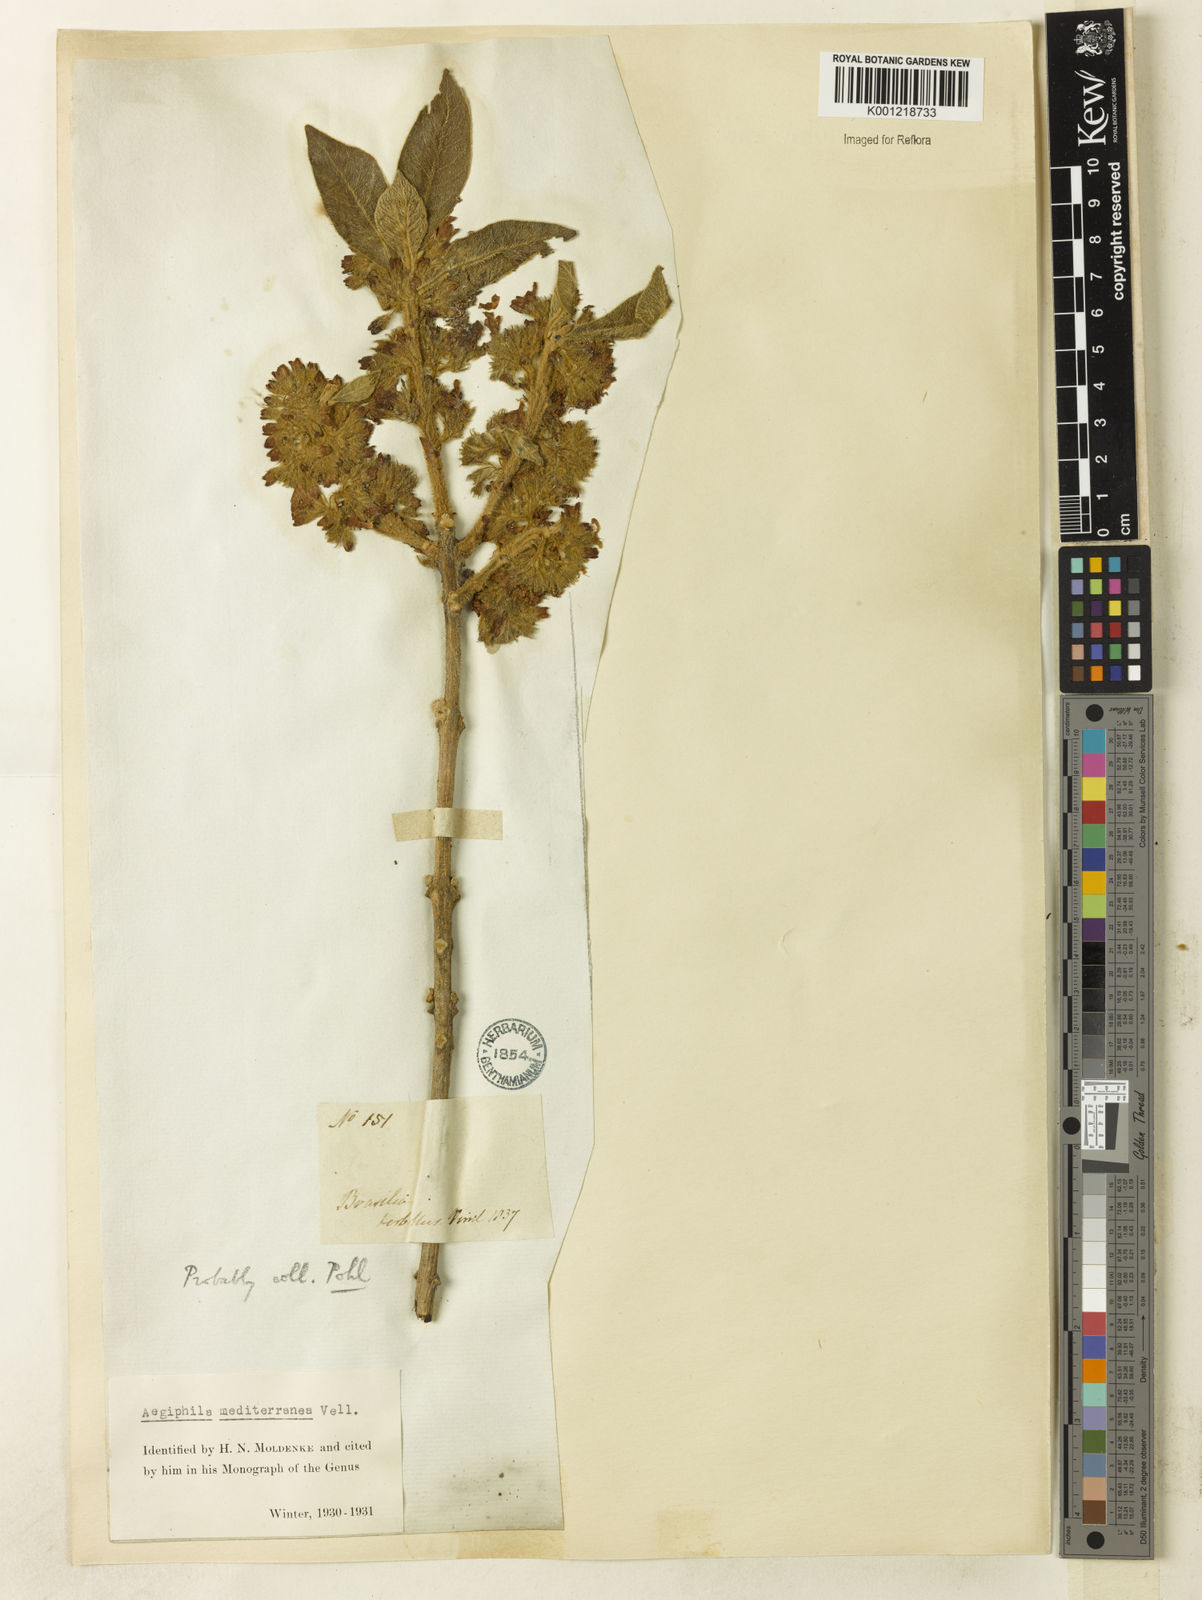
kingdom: Plantae
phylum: Tracheophyta
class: Magnoliopsida
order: Lamiales
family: Lamiaceae
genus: Aegiphila
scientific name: Aegiphila mediterranea
